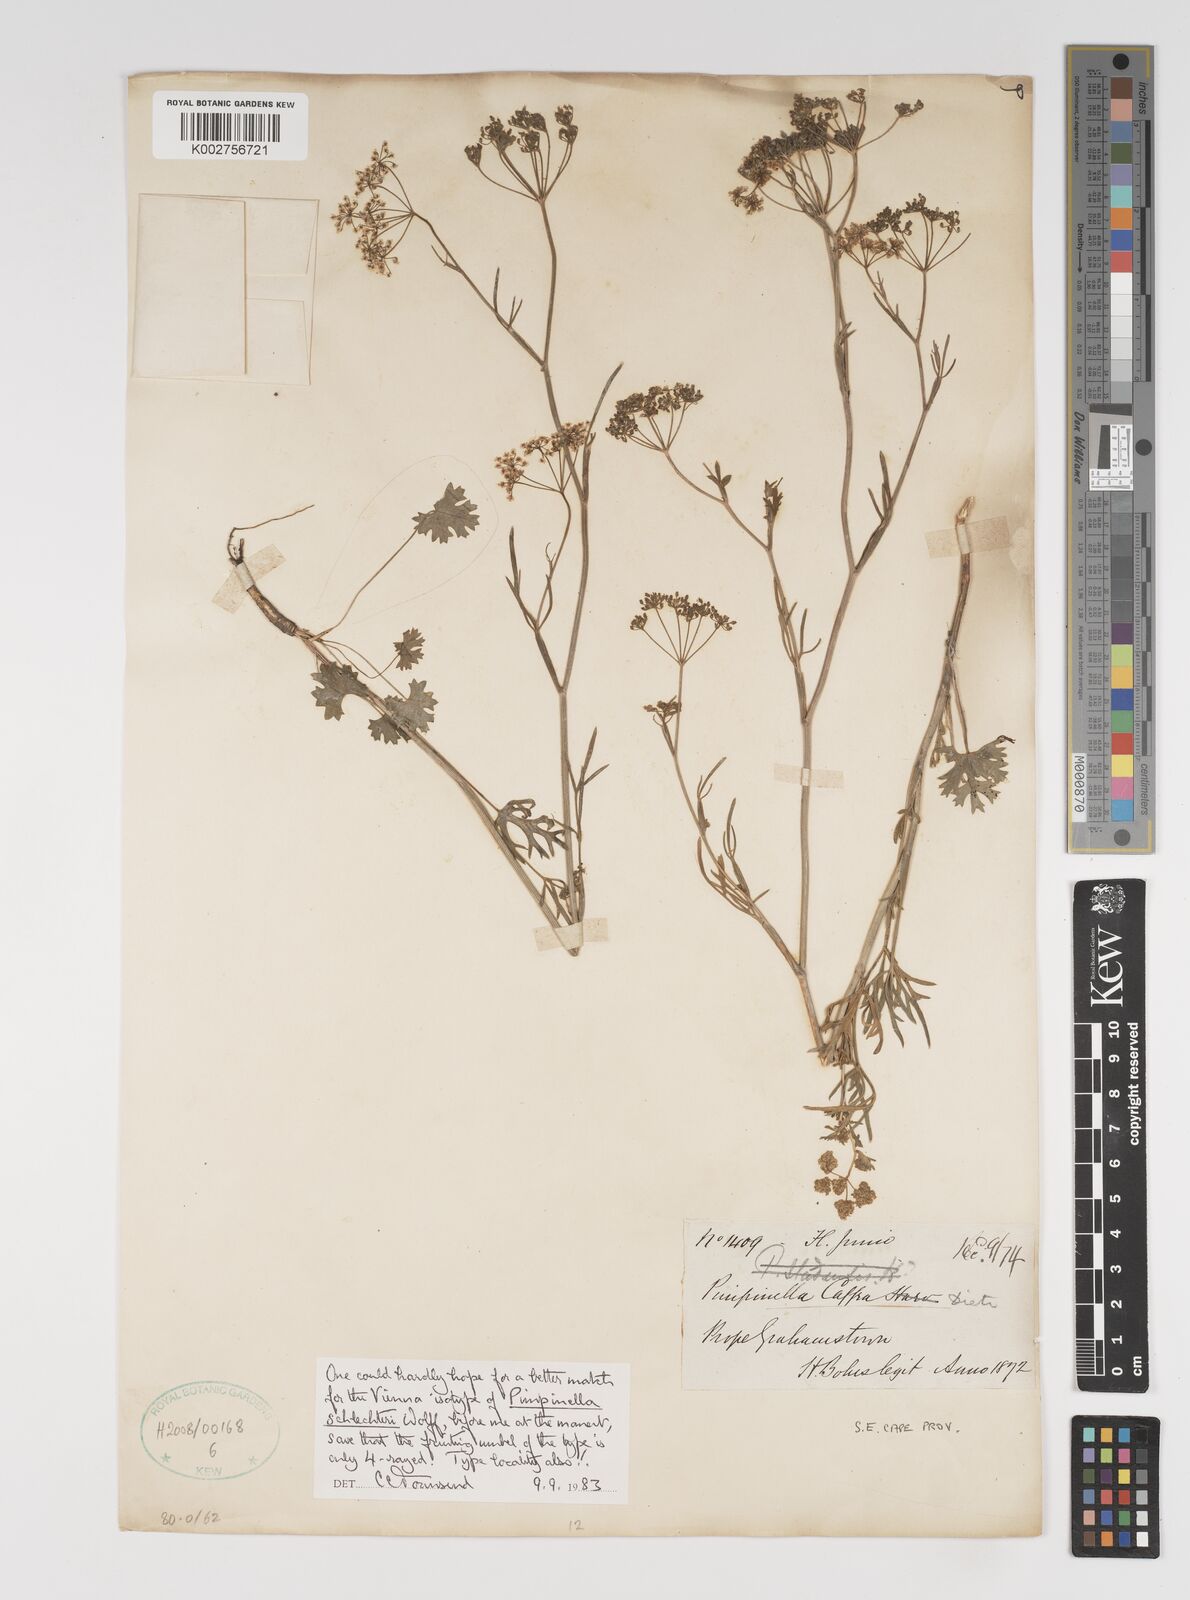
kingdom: Plantae
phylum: Tracheophyta
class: Magnoliopsida
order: Apiales
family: Apiaceae
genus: Pimpinella
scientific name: Pimpinella caffra
